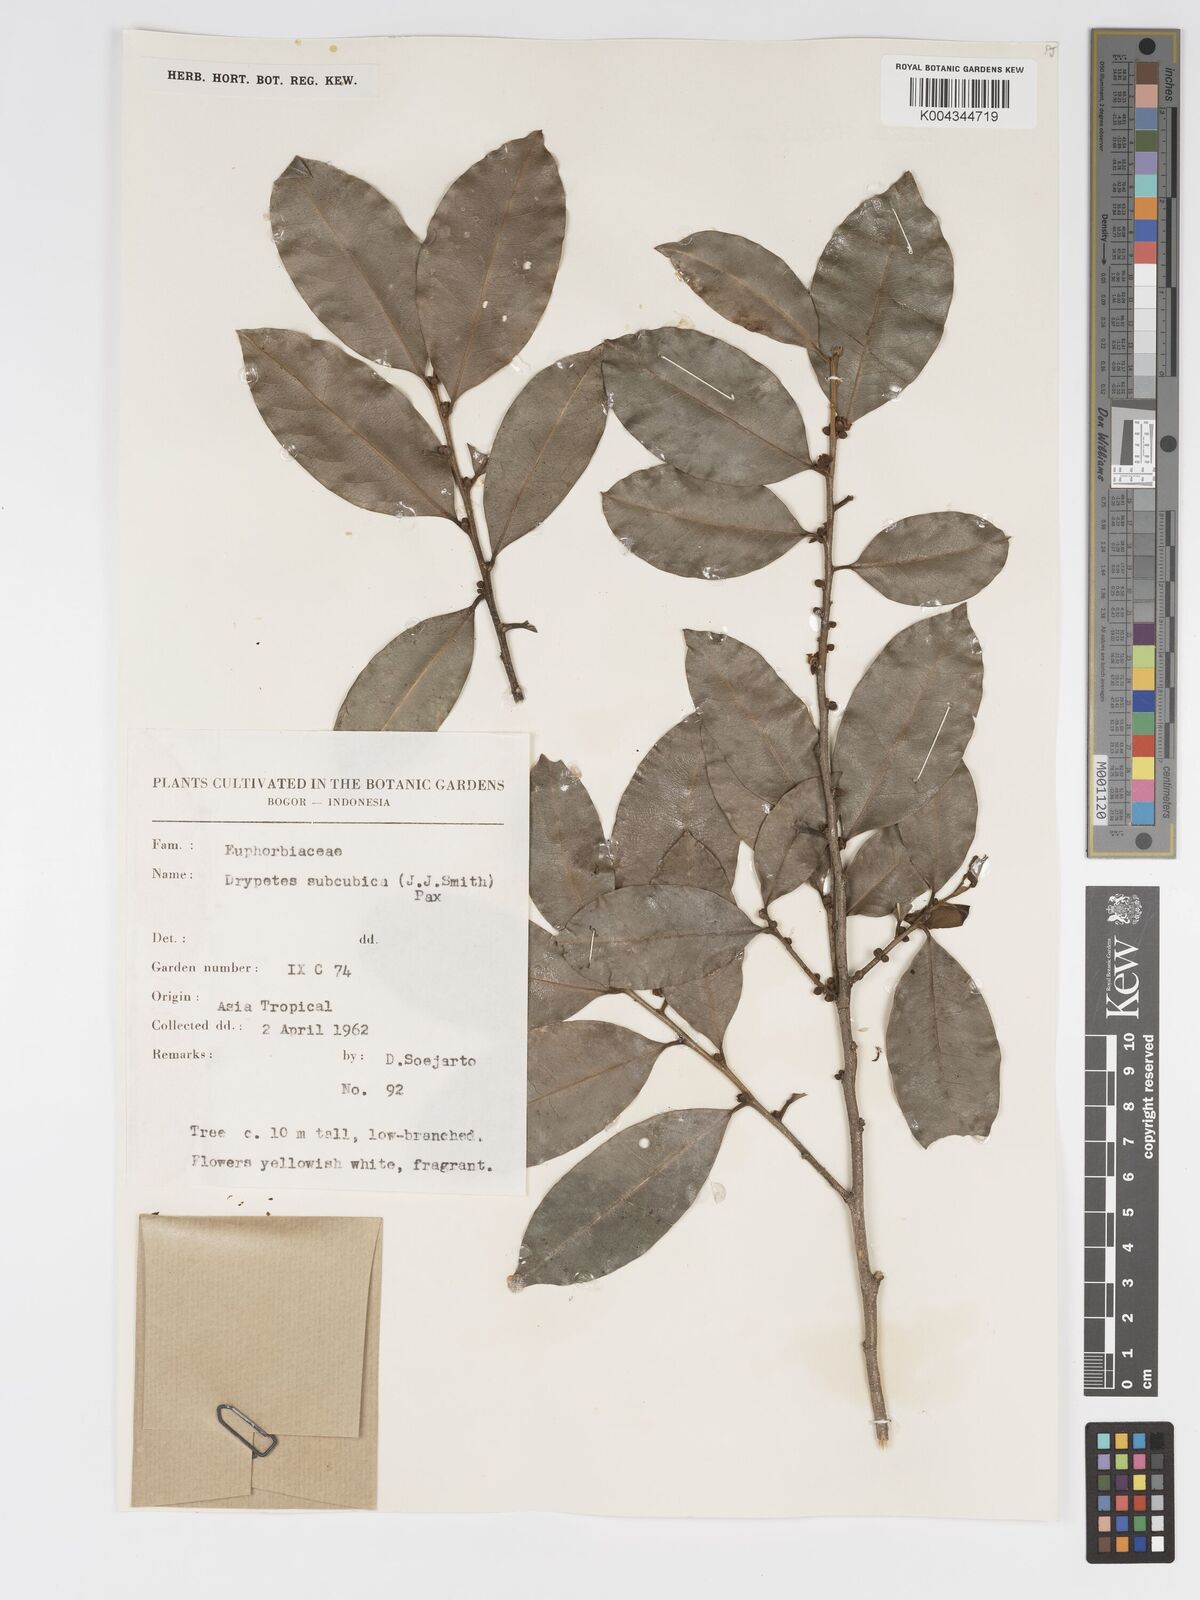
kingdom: Plantae
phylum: Tracheophyta
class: Magnoliopsida
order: Malpighiales
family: Putranjivaceae
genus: Drypetes
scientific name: Drypetes subcubica
